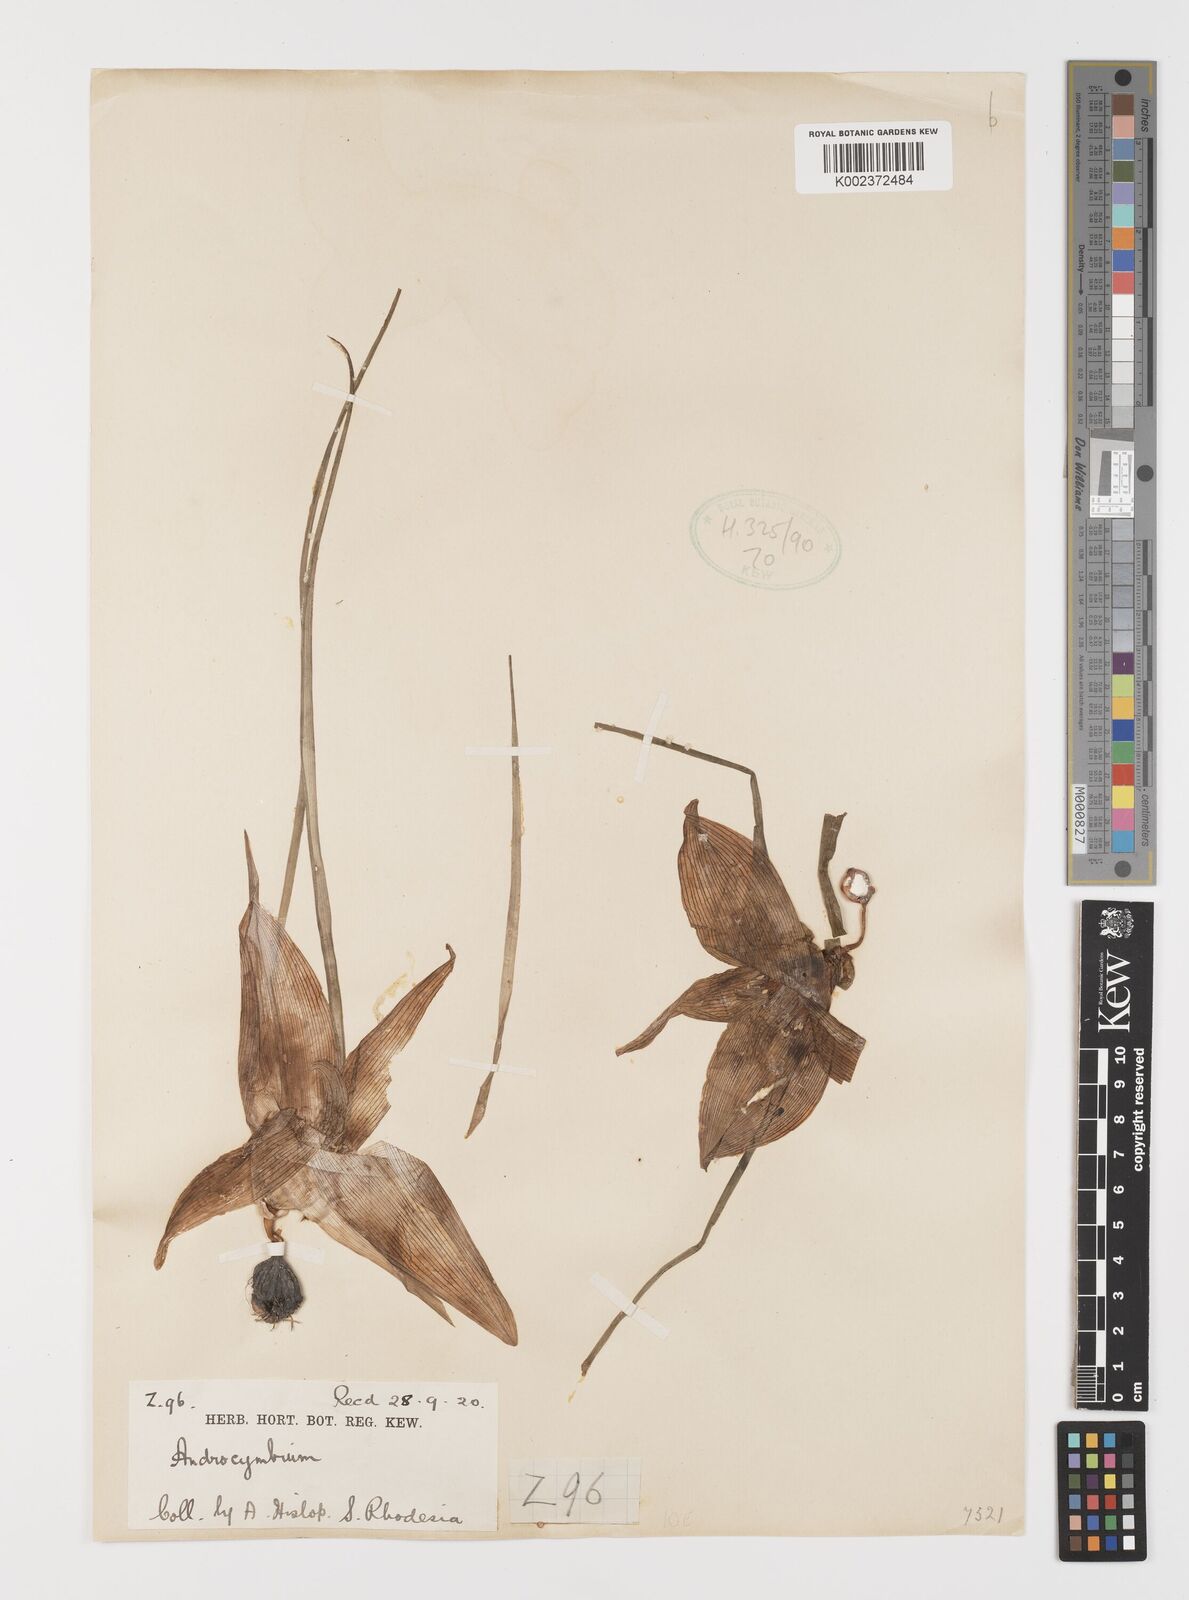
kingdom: Plantae
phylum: Tracheophyta
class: Liliopsida
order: Liliales
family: Colchicaceae
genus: Colchicum
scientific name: Colchicum melanthioides
